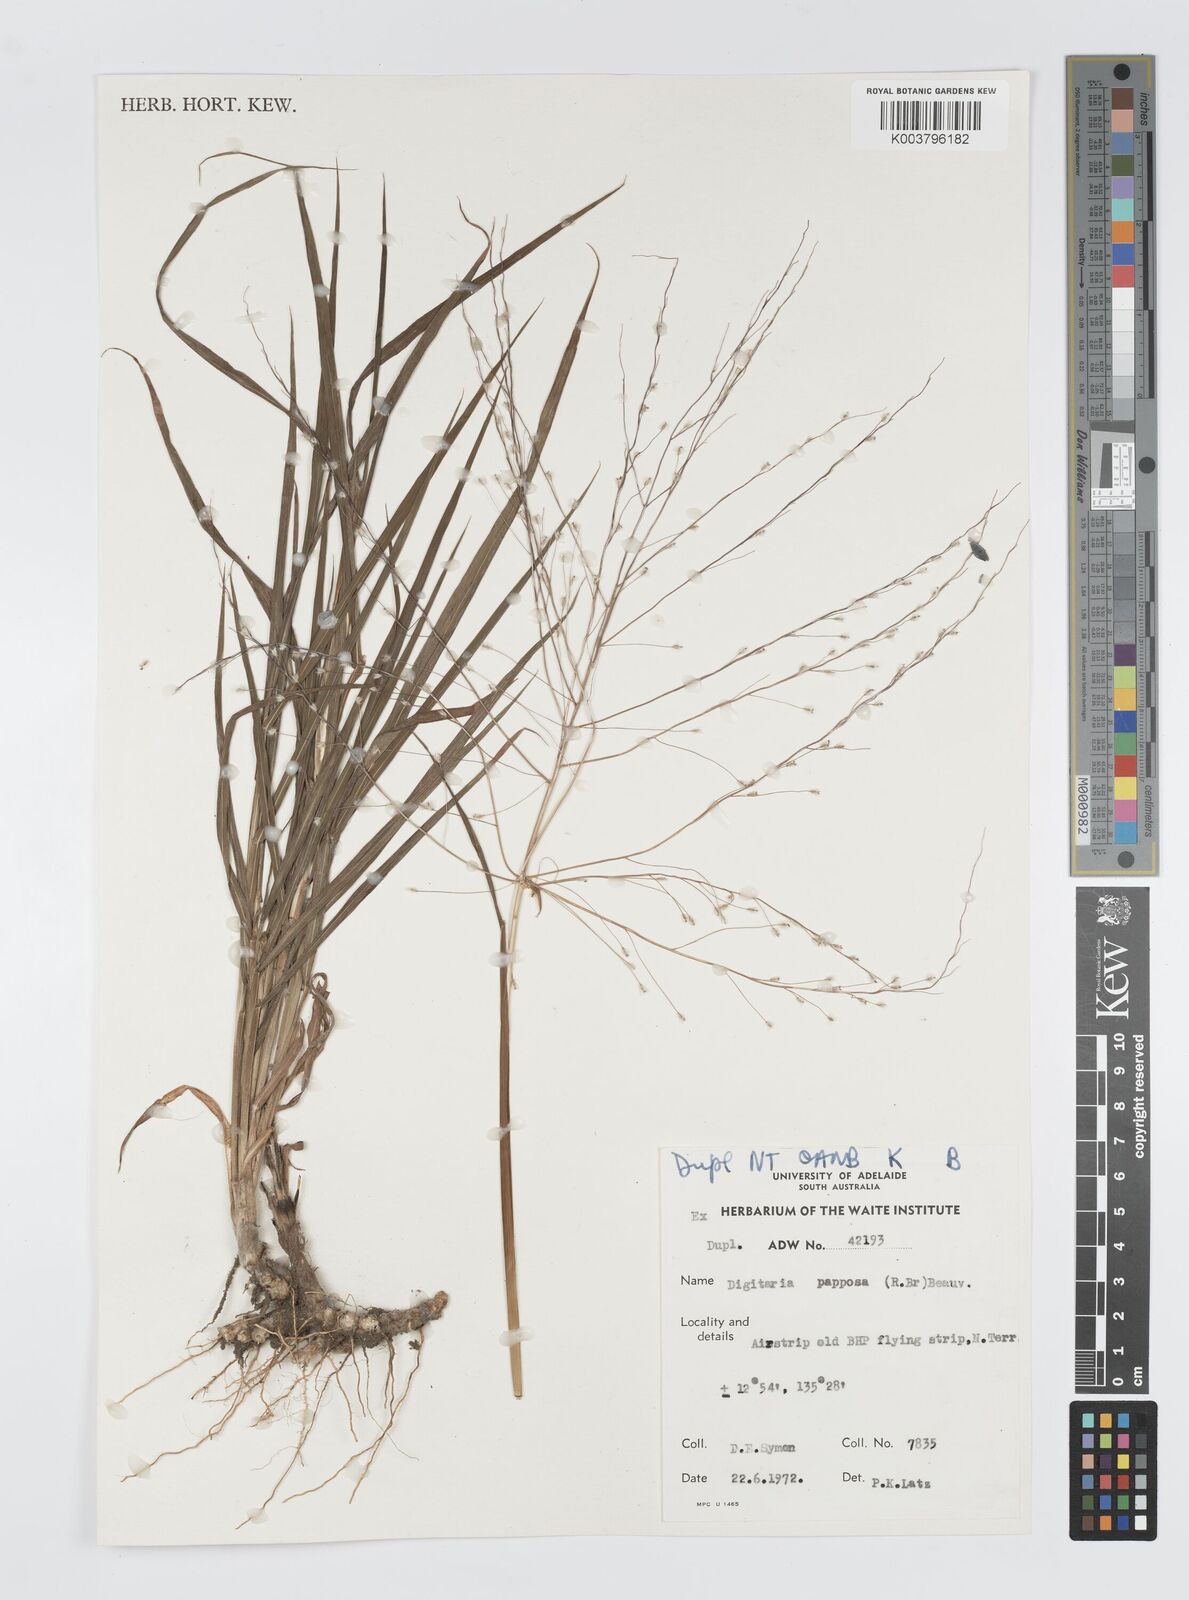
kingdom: Plantae
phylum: Tracheophyta
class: Liliopsida
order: Poales
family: Poaceae
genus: Digitaria
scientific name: Digitaria papposa
